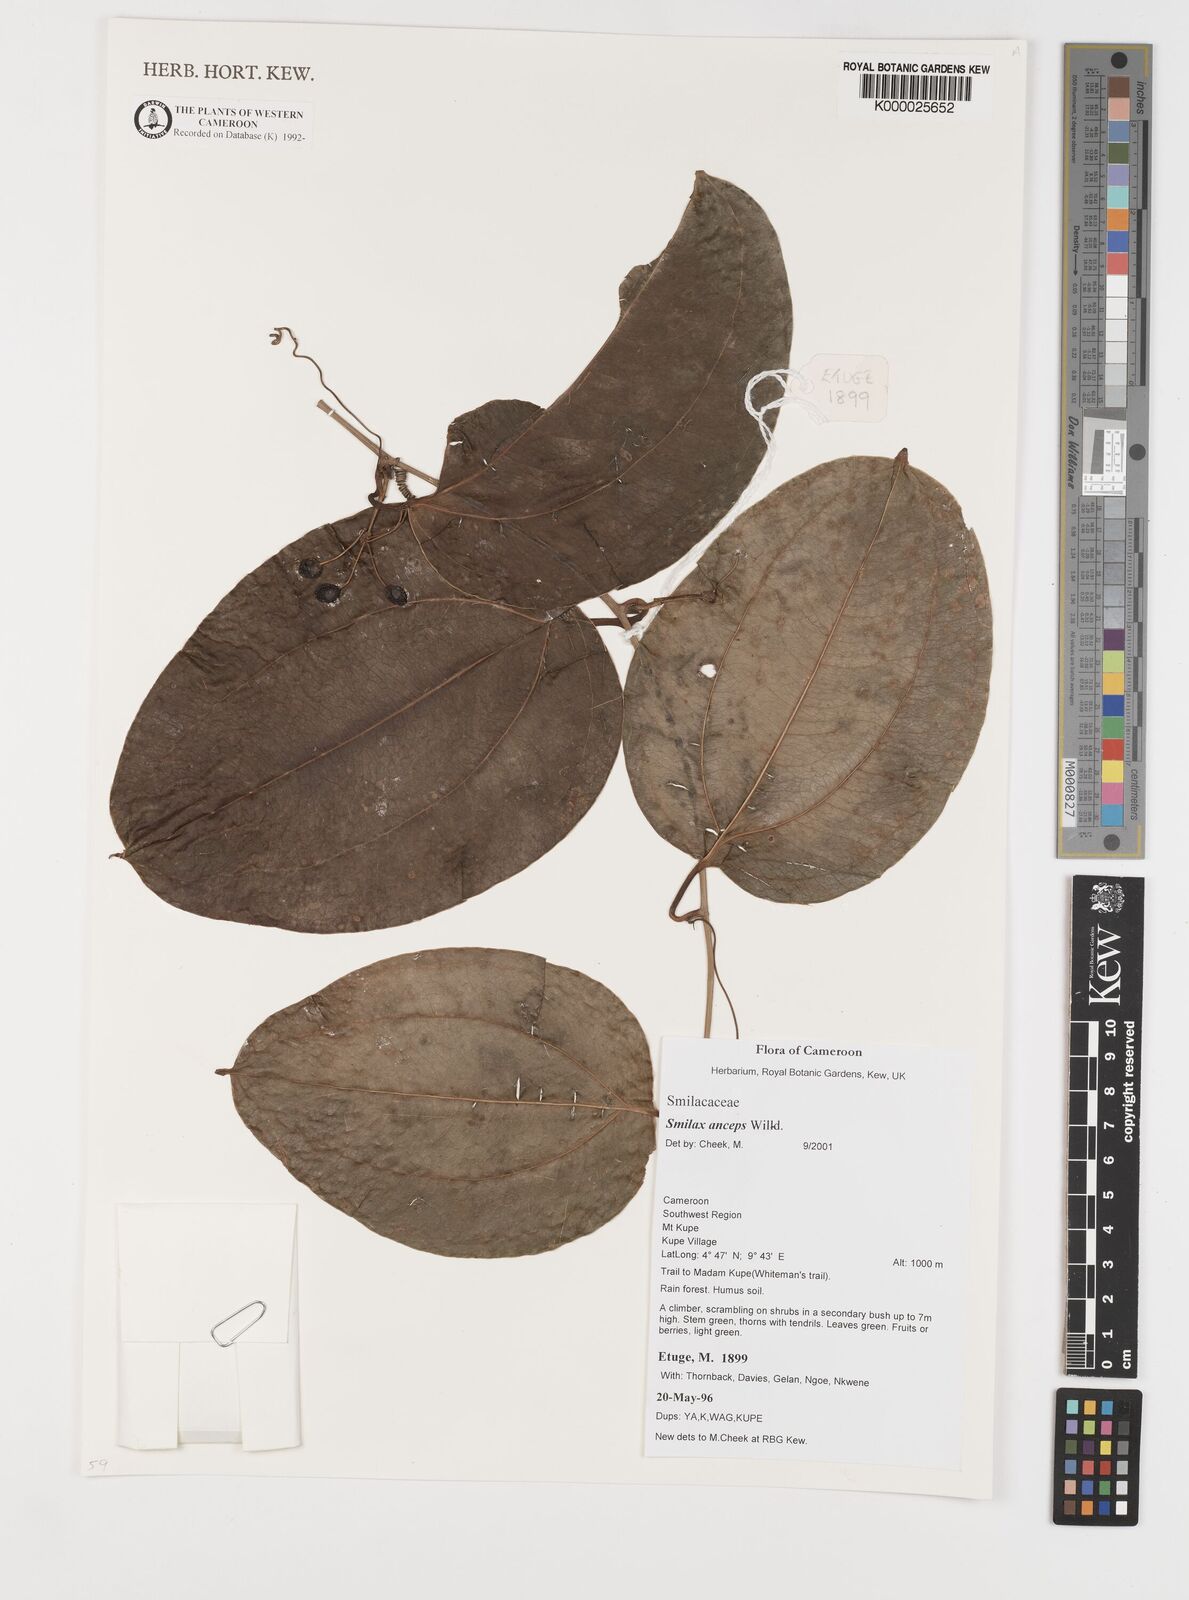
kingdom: Plantae
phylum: Tracheophyta
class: Liliopsida
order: Liliales
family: Smilacaceae
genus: Smilax
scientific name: Smilax anceps
